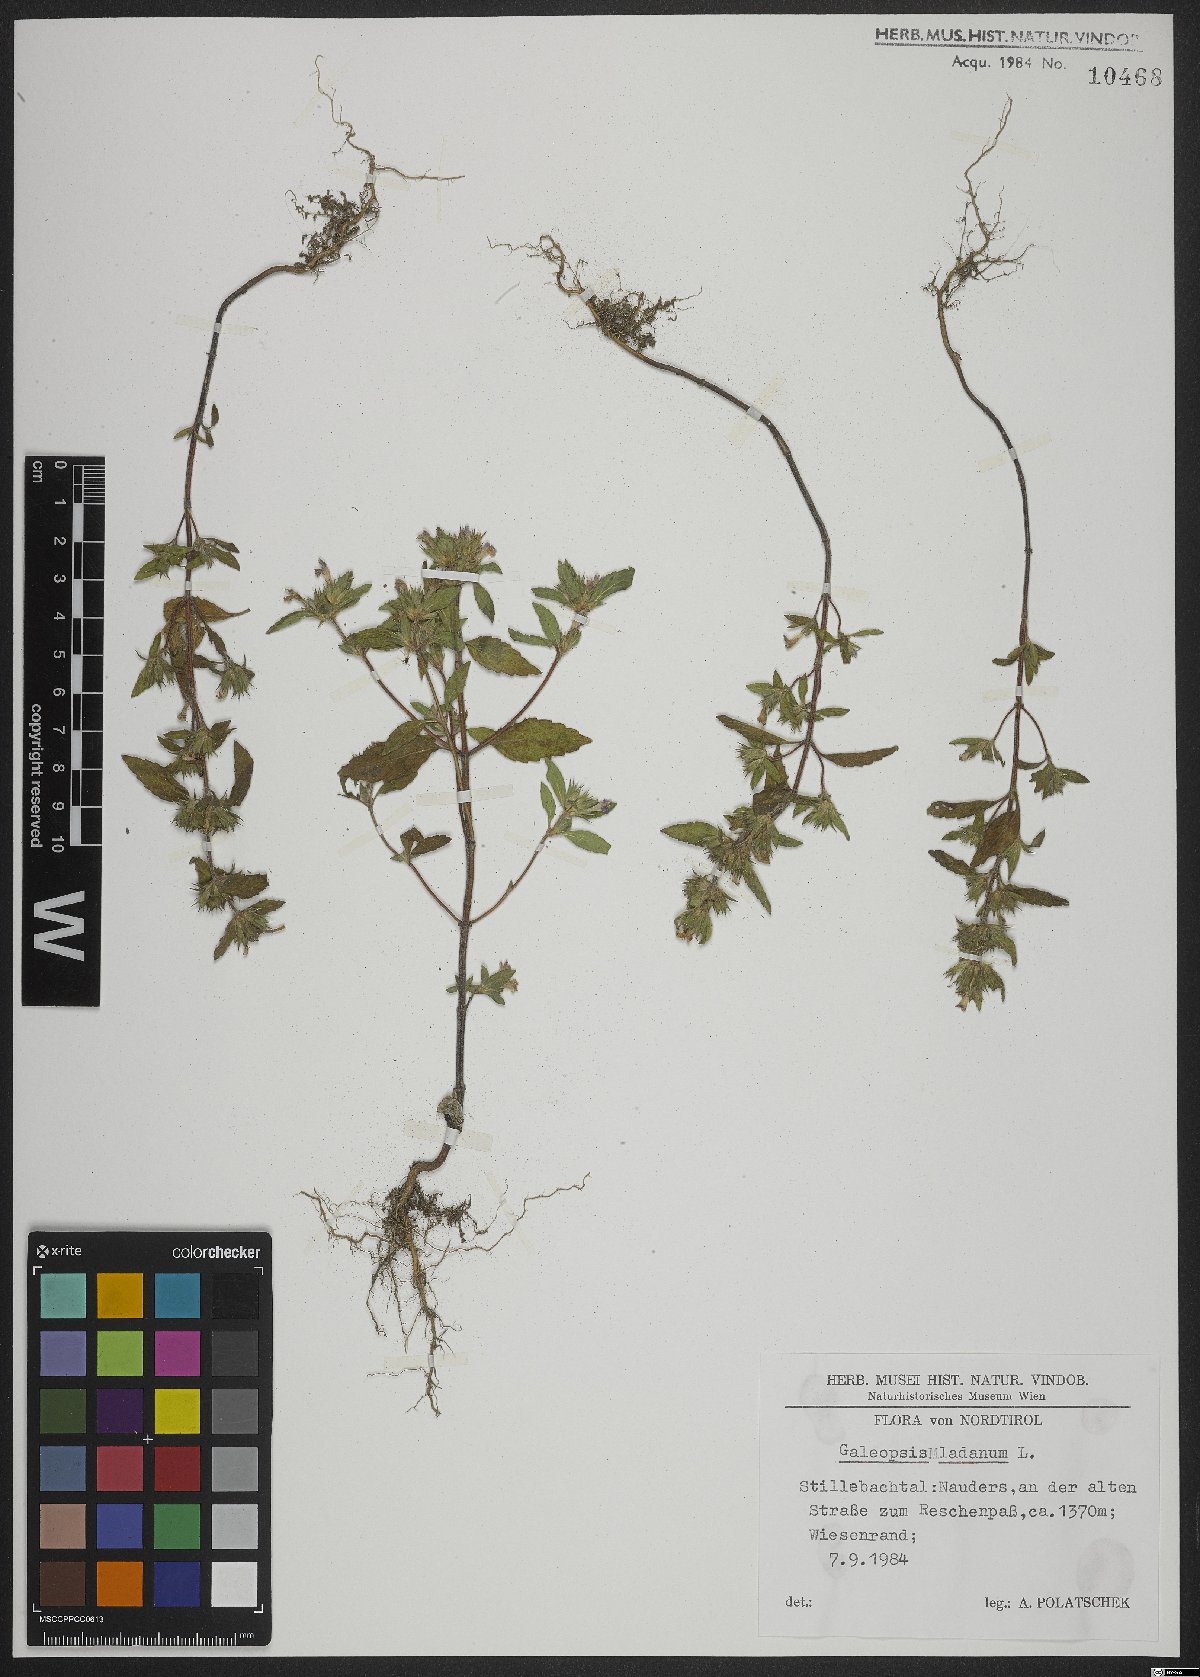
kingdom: Plantae
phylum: Tracheophyta
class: Magnoliopsida
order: Lamiales
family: Lamiaceae
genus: Galeopsis
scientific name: Galeopsis ladanum
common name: Broad-leaved hemp-nettle
